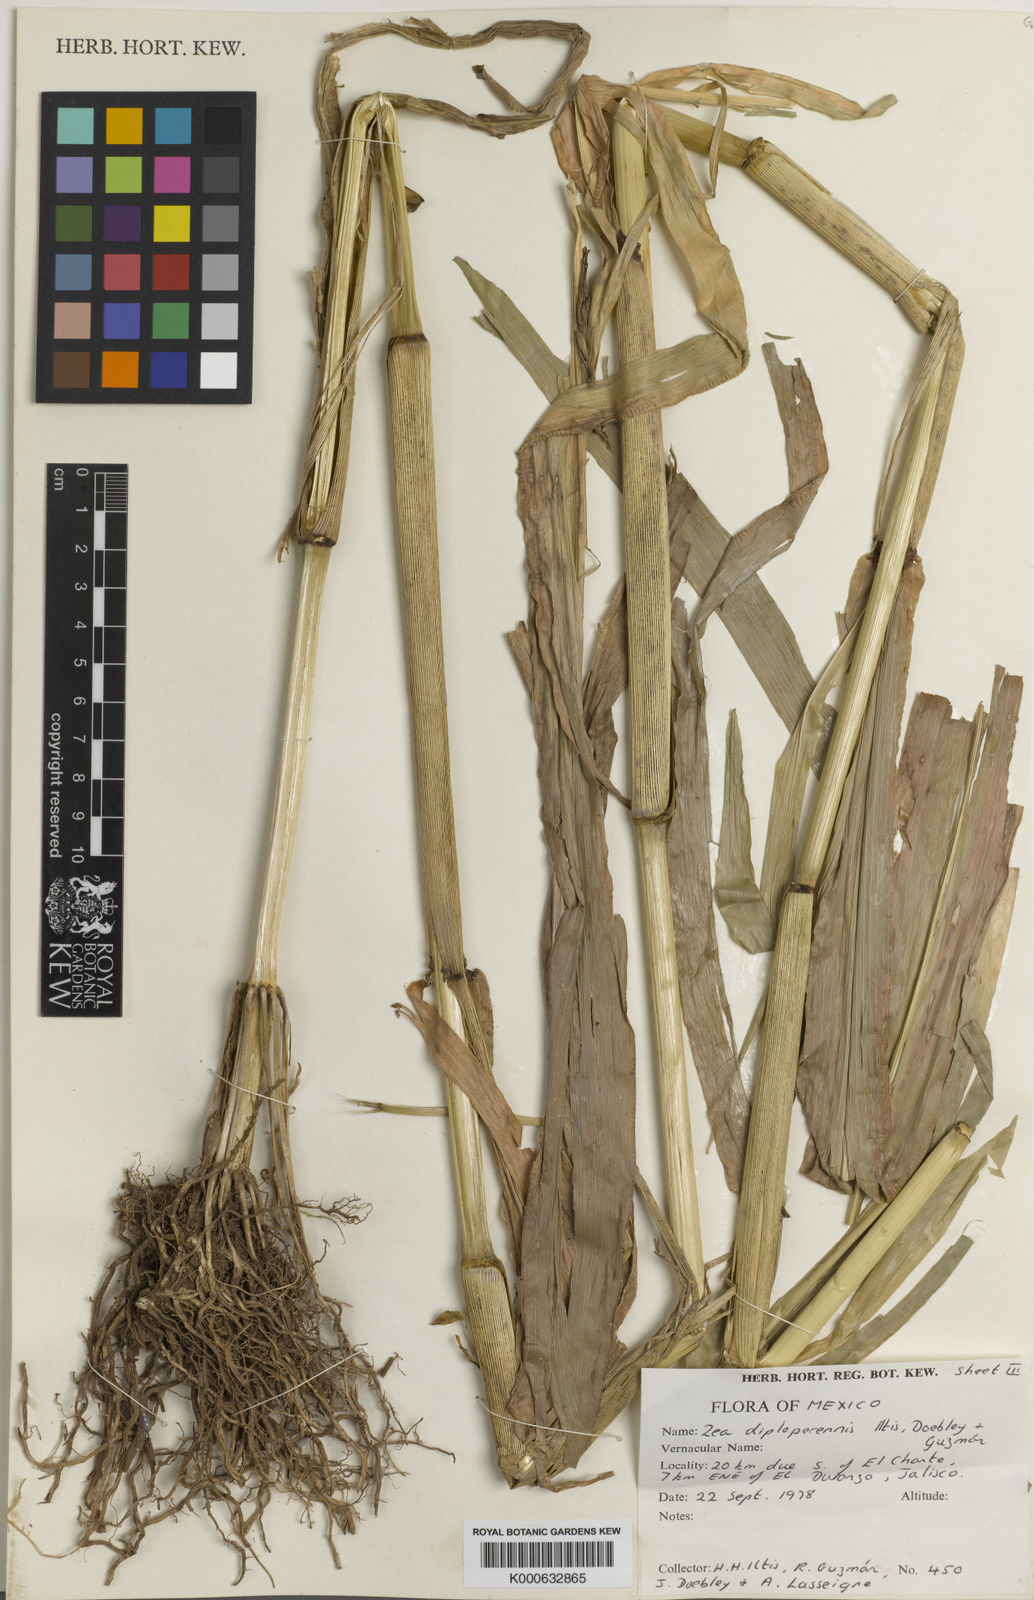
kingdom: Plantae
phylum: Tracheophyta
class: Liliopsida
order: Poales
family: Poaceae
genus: Zea
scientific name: Zea
